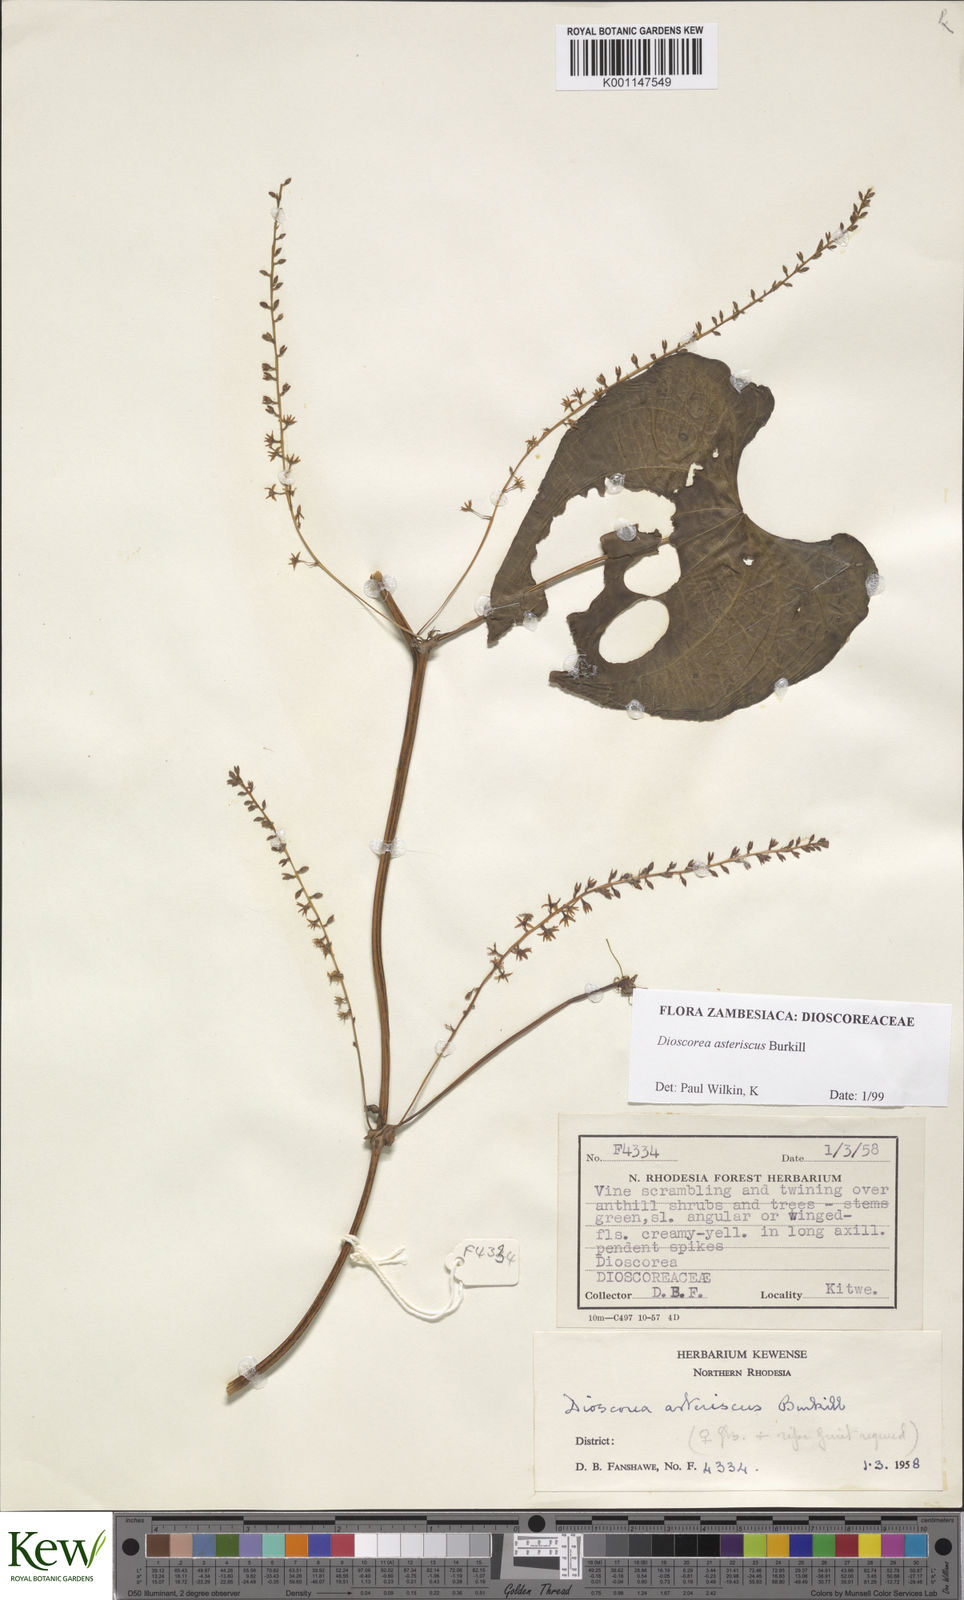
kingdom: Plantae
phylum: Tracheophyta
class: Liliopsida
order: Dioscoreales
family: Dioscoreaceae
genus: Dioscorea
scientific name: Dioscorea asteriscus
